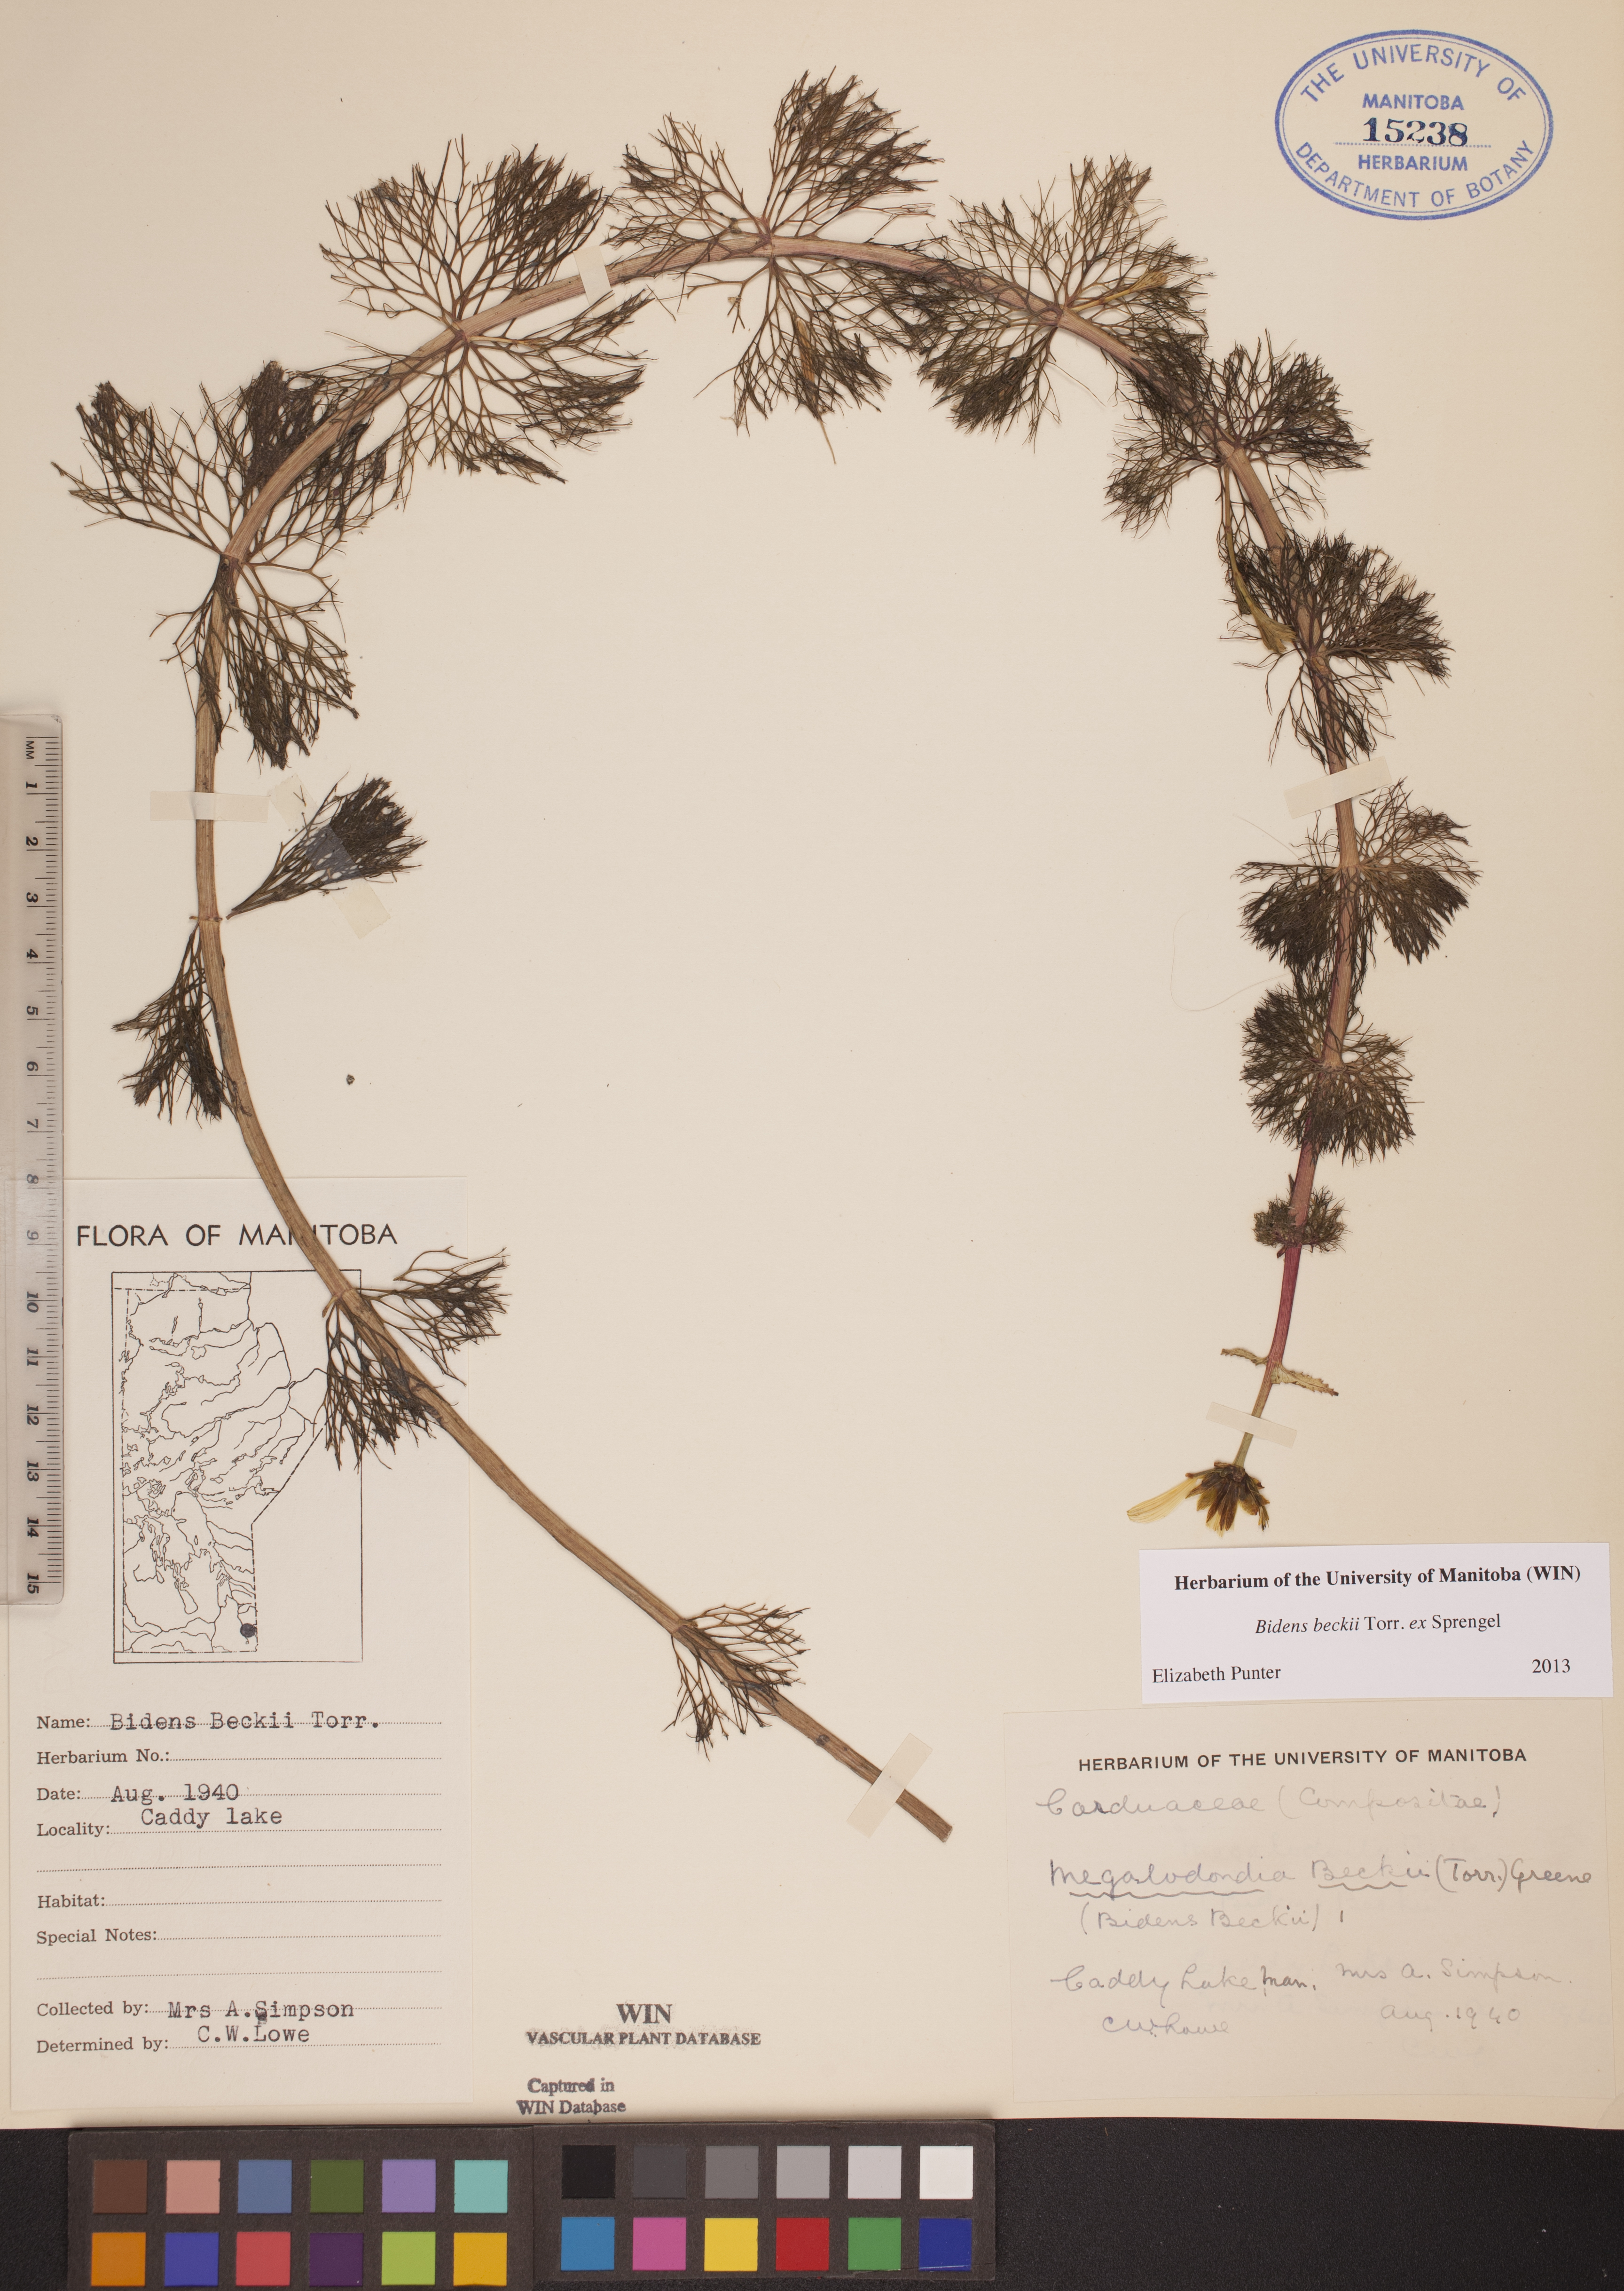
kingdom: Plantae
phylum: Tracheophyta
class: Magnoliopsida
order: Asterales
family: Asteraceae
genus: Bidens
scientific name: Bidens beckii
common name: Beck's beggarticks
